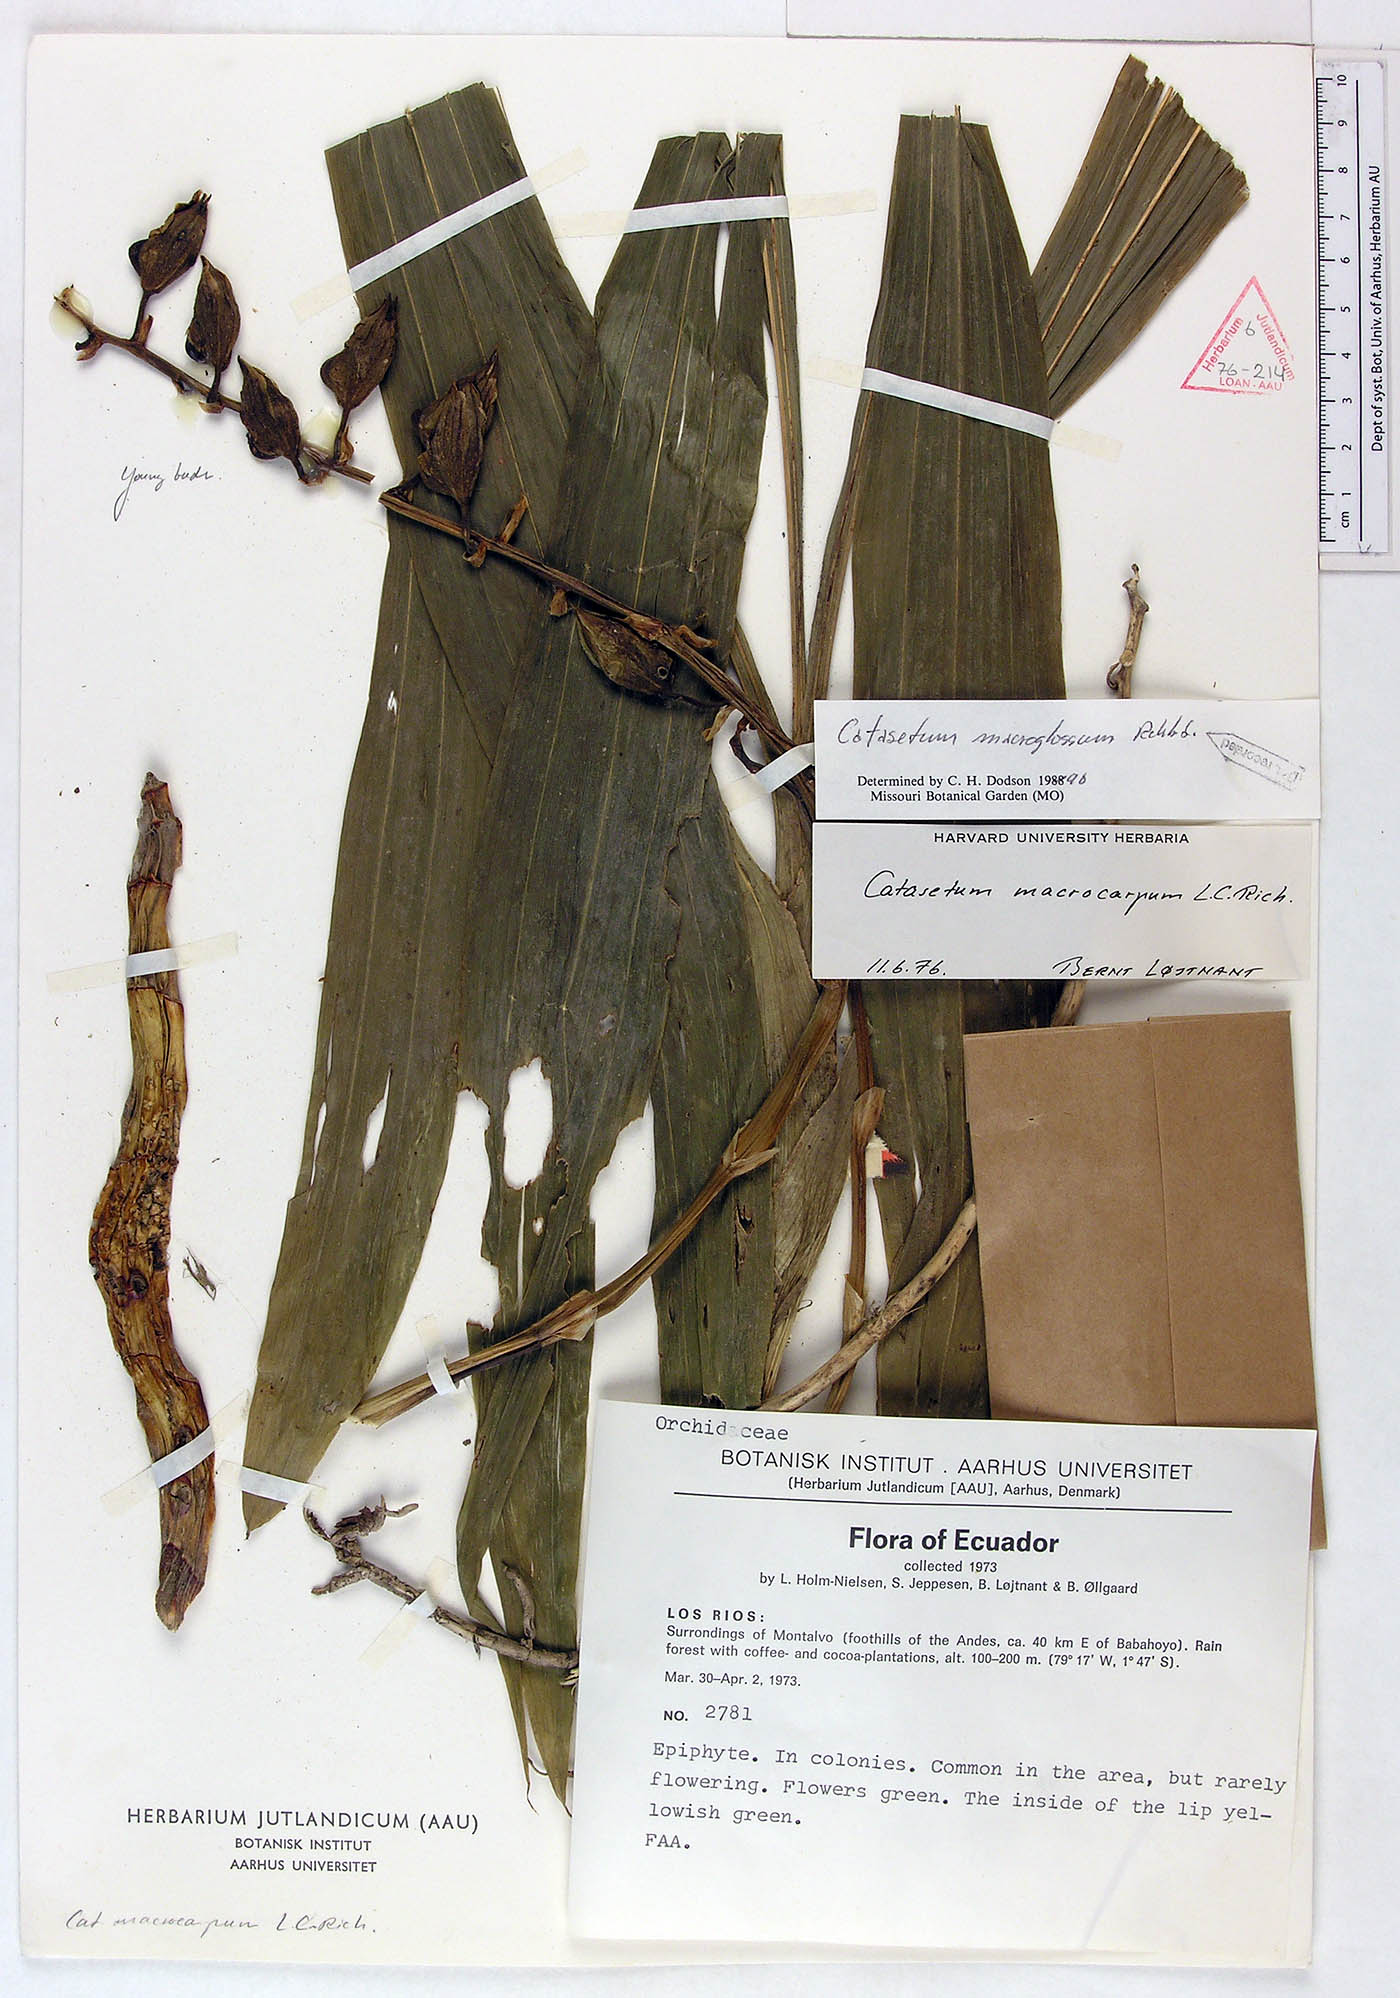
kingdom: Plantae
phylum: Tracheophyta
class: Liliopsida
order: Asparagales
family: Orchidaceae
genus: Catasetum
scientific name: Catasetum macroglossum
